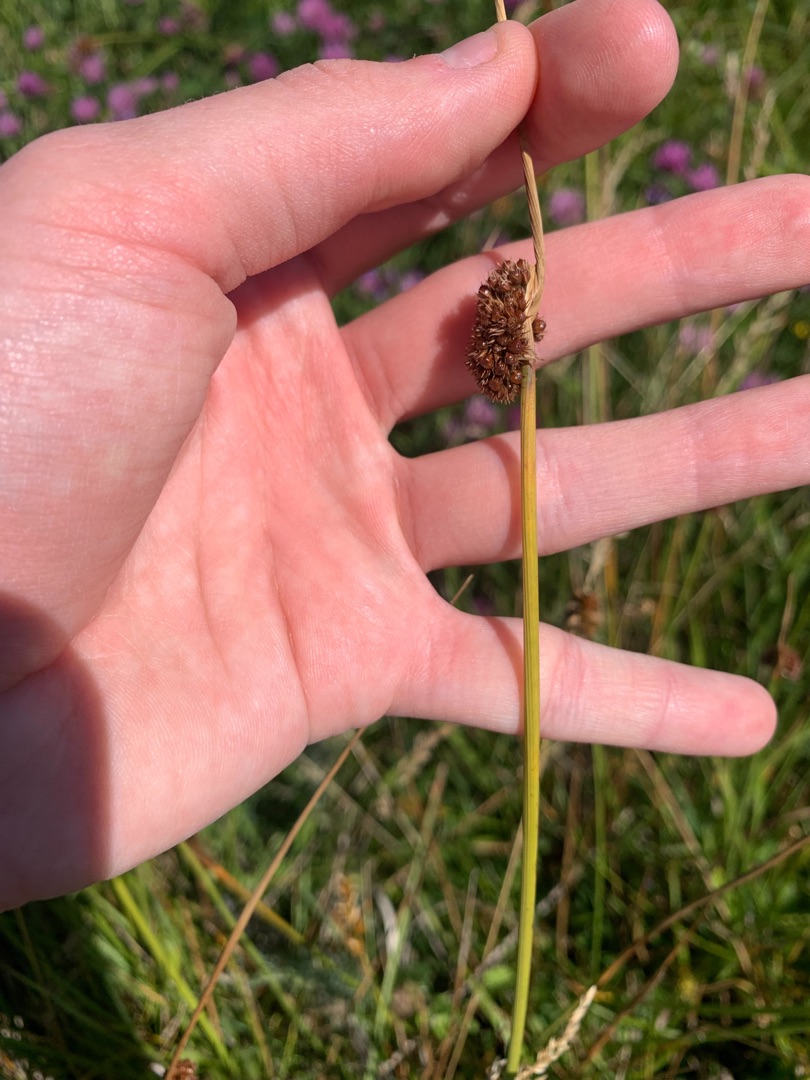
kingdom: Plantae
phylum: Tracheophyta
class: Liliopsida
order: Poales
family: Juncaceae
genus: Juncus
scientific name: Juncus conglomeratus
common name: Knop-siv
